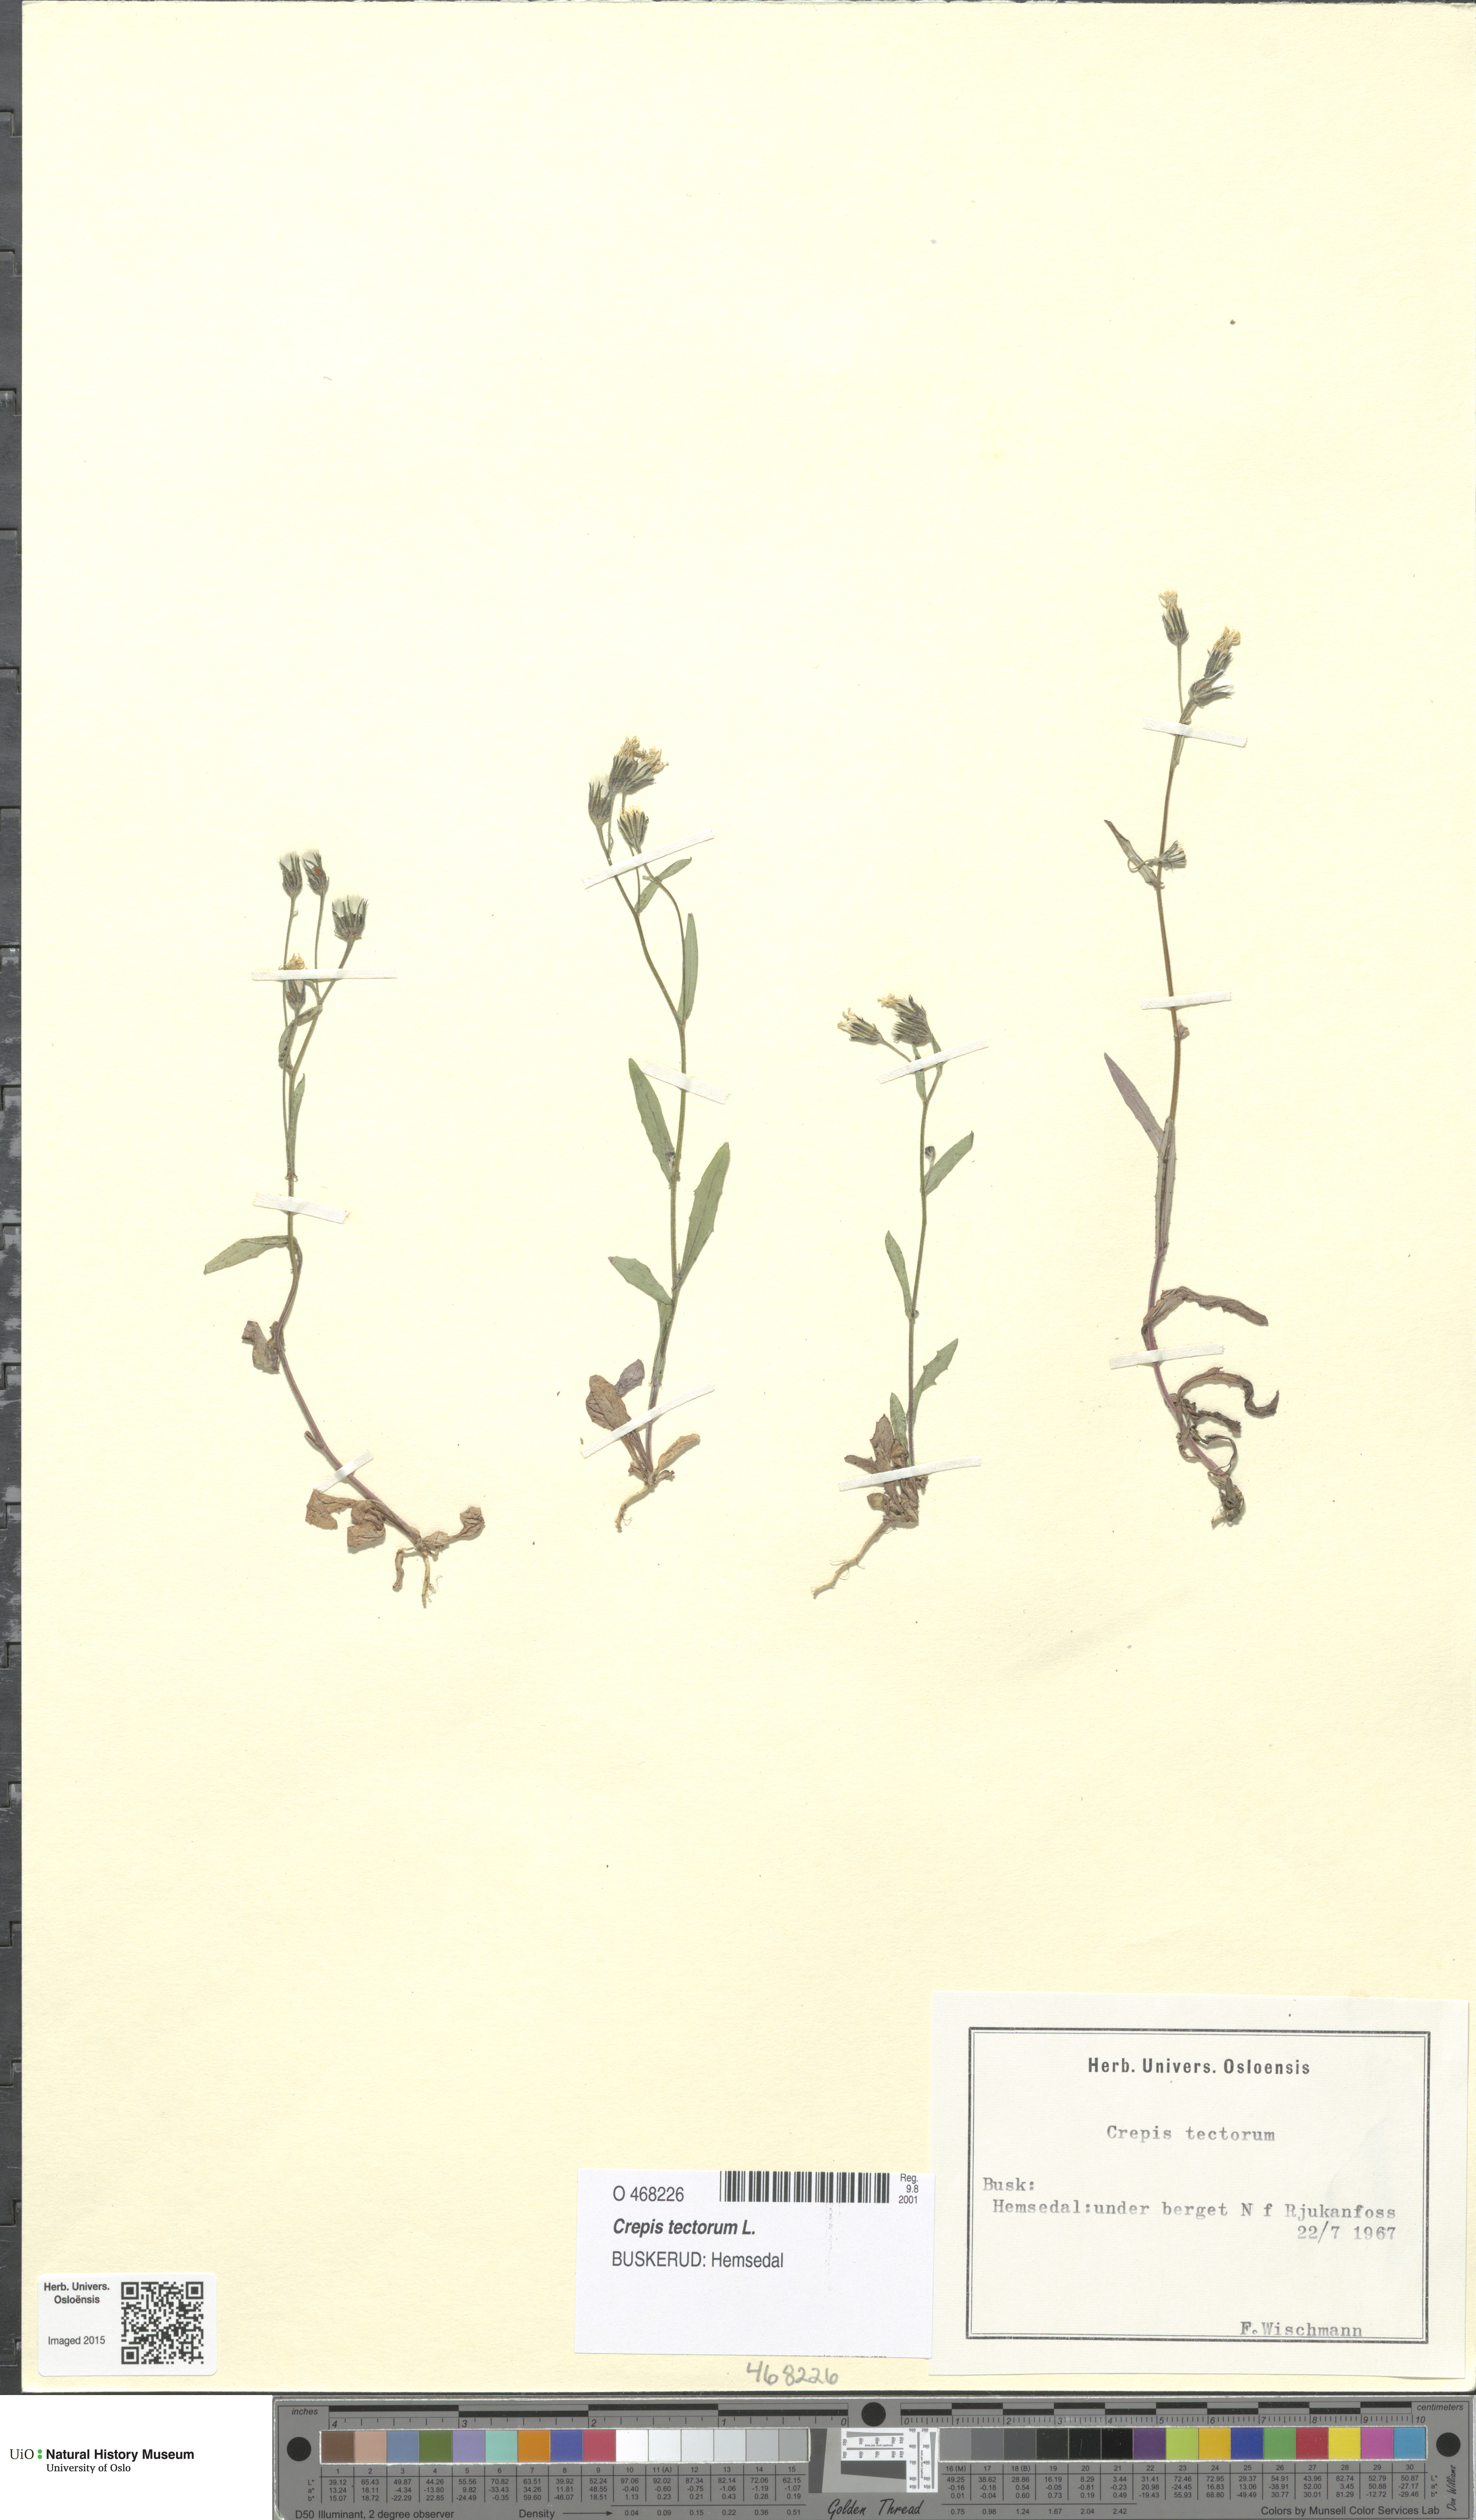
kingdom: Plantae
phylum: Tracheophyta
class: Magnoliopsida
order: Asterales
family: Asteraceae
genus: Crepis
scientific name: Crepis tectorum
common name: Narrow-leaved hawk's-beard
